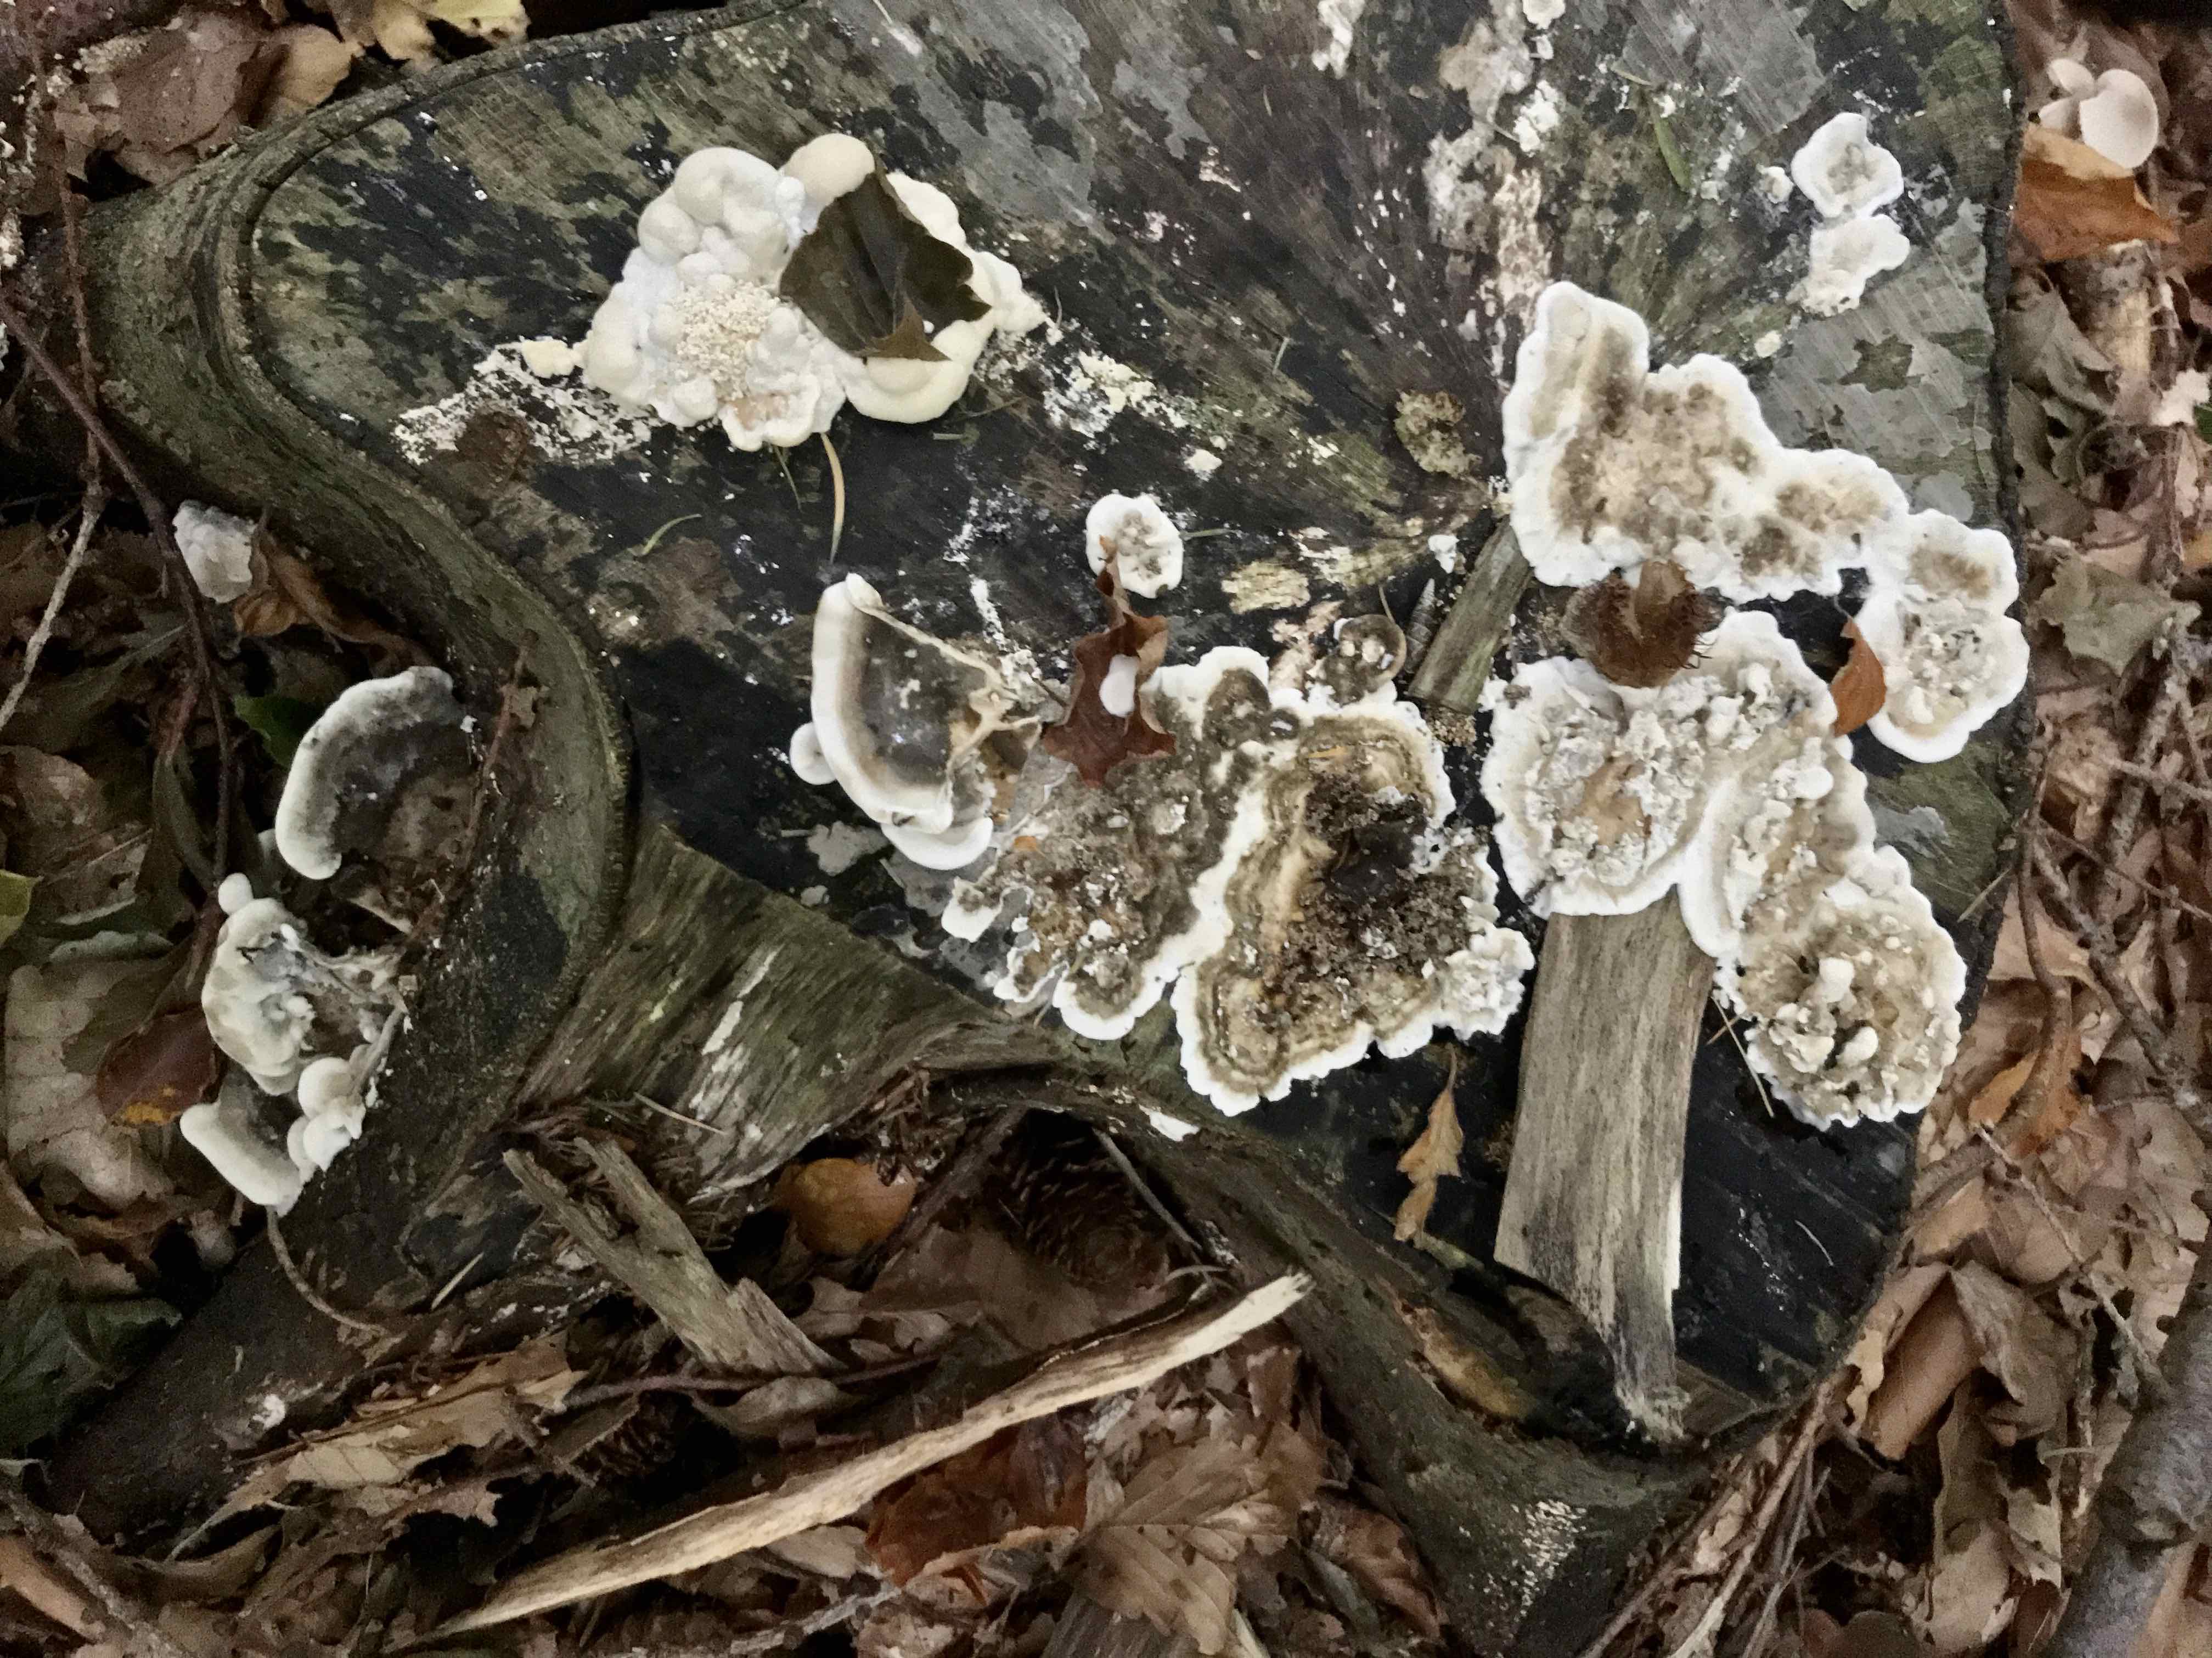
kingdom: Fungi
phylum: Basidiomycota
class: Agaricomycetes
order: Polyporales
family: Phanerochaetaceae
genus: Bjerkandera
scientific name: Bjerkandera adusta
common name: sveden sodporesvamp
